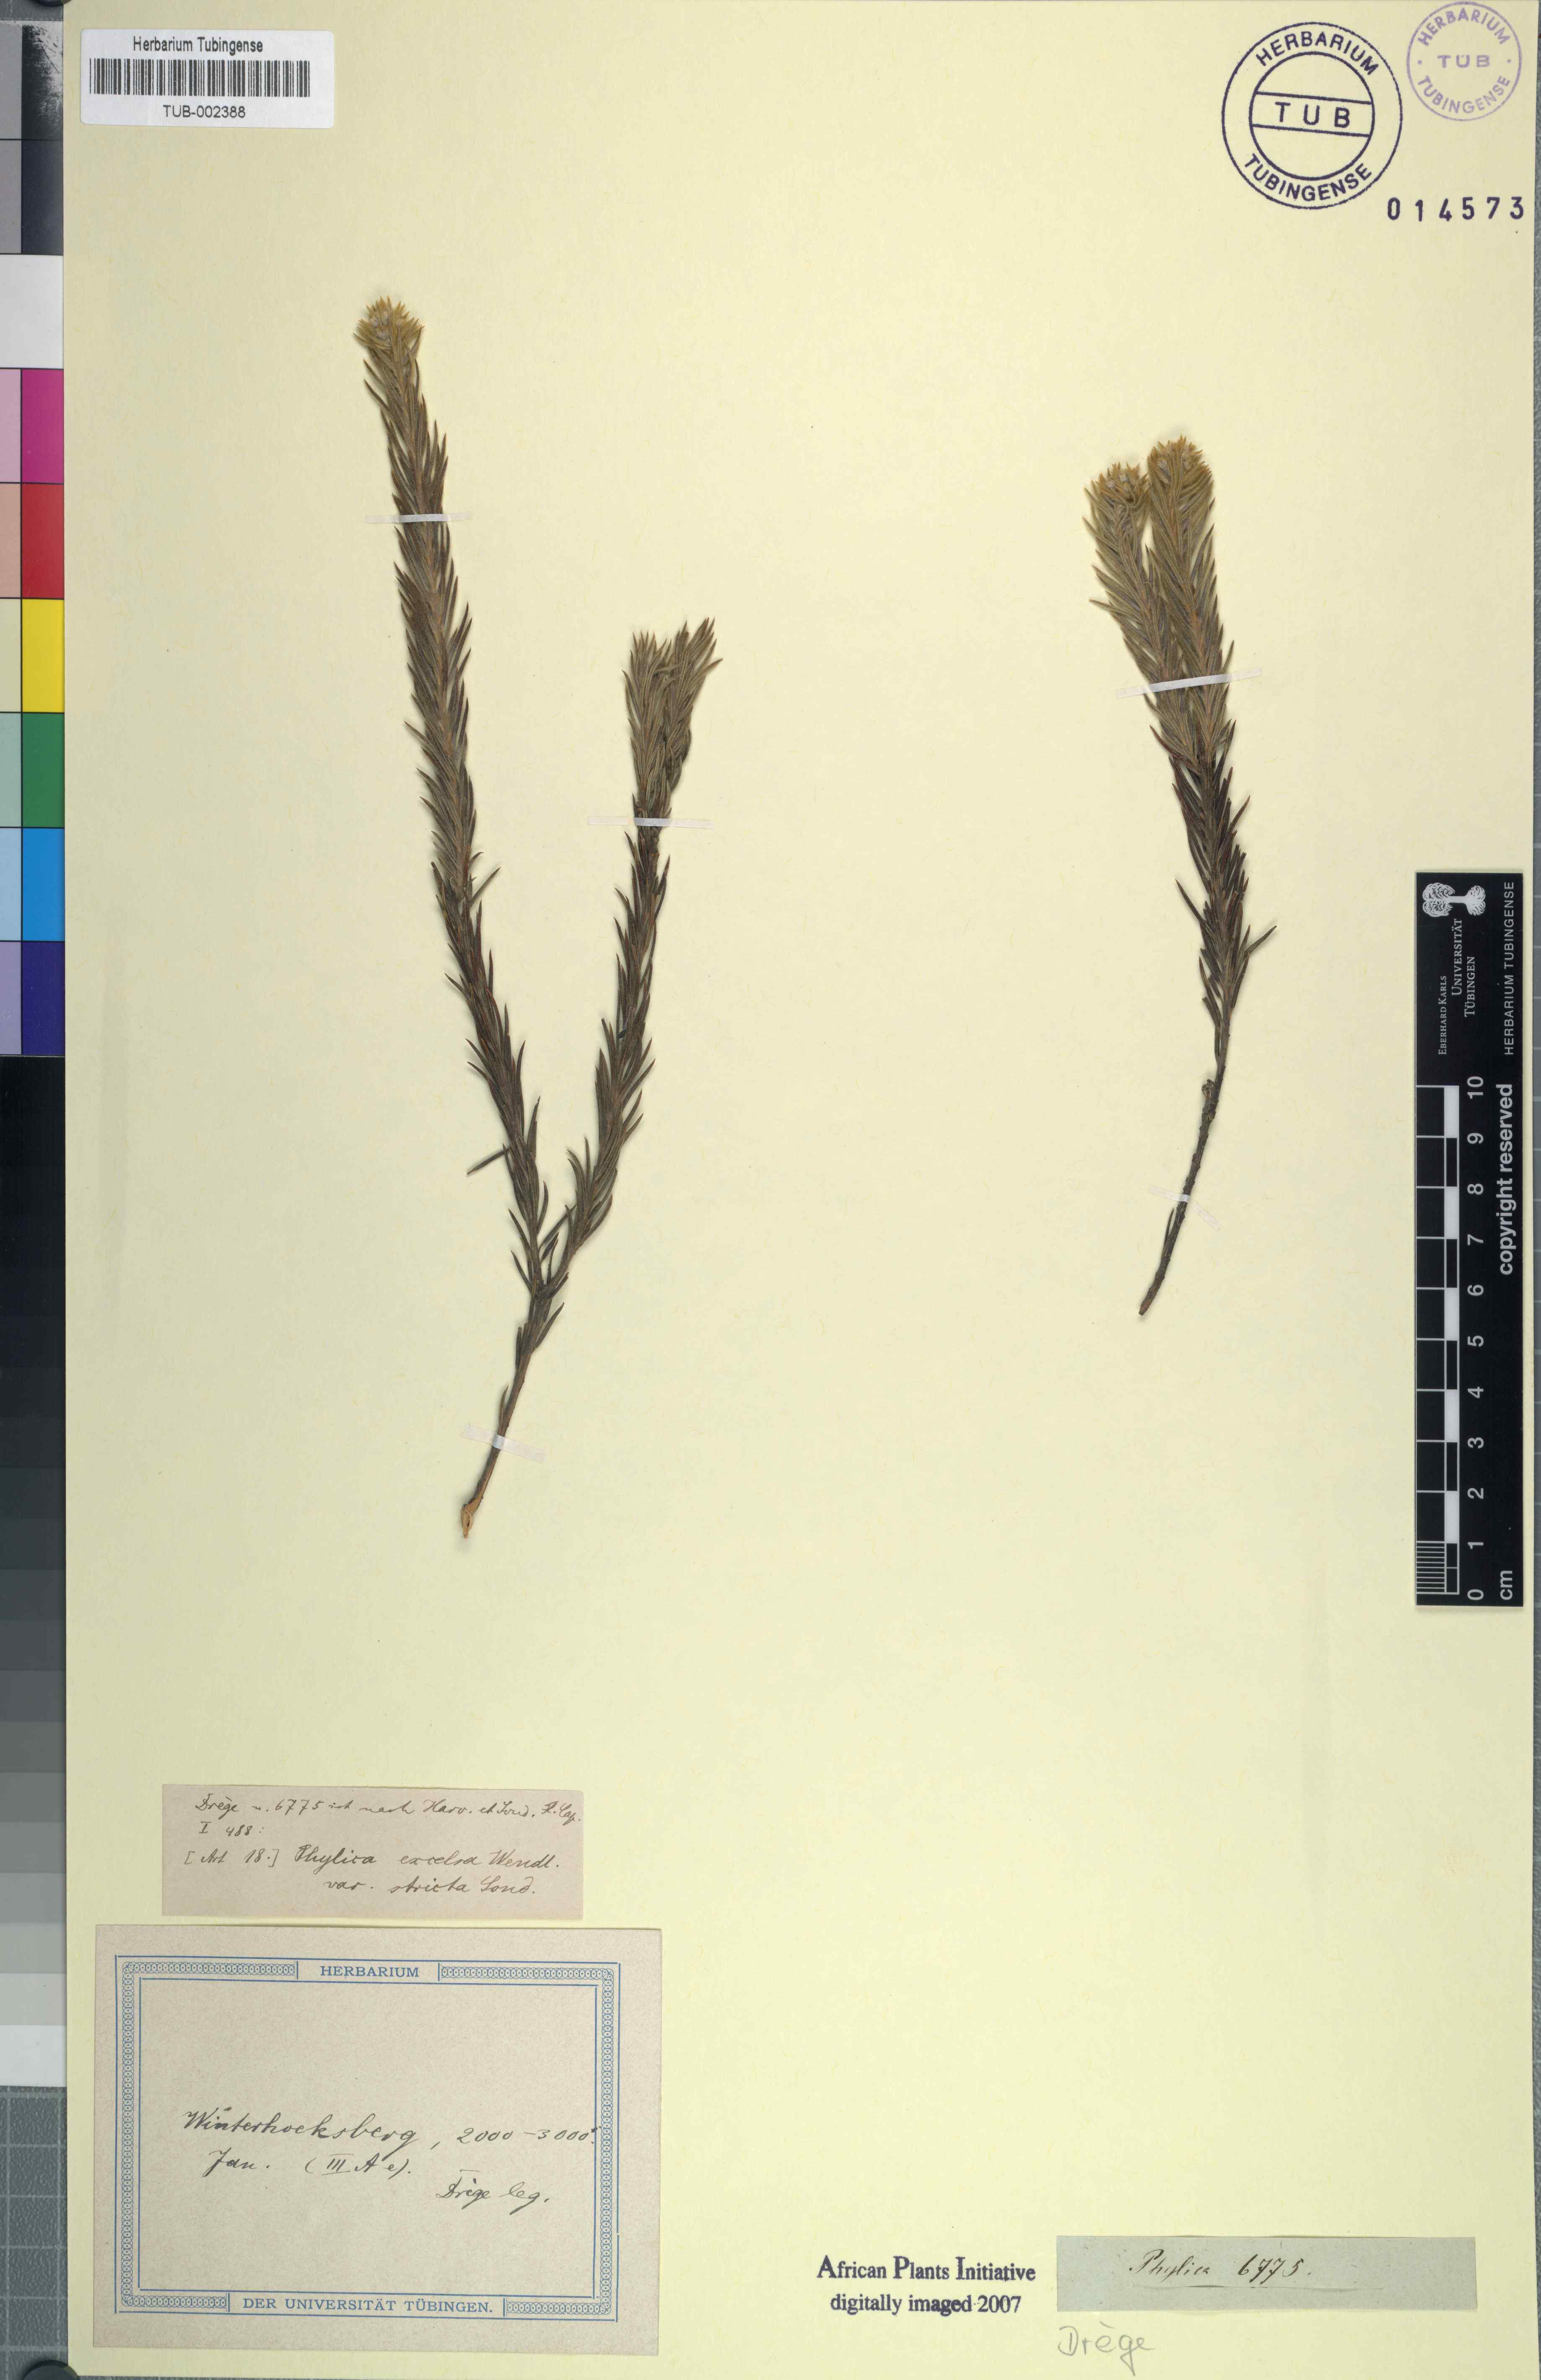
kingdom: Plantae
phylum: Tracheophyta
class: Magnoliopsida
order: Rosales
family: Rhamnaceae
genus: Phylica
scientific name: Phylica excelsa
